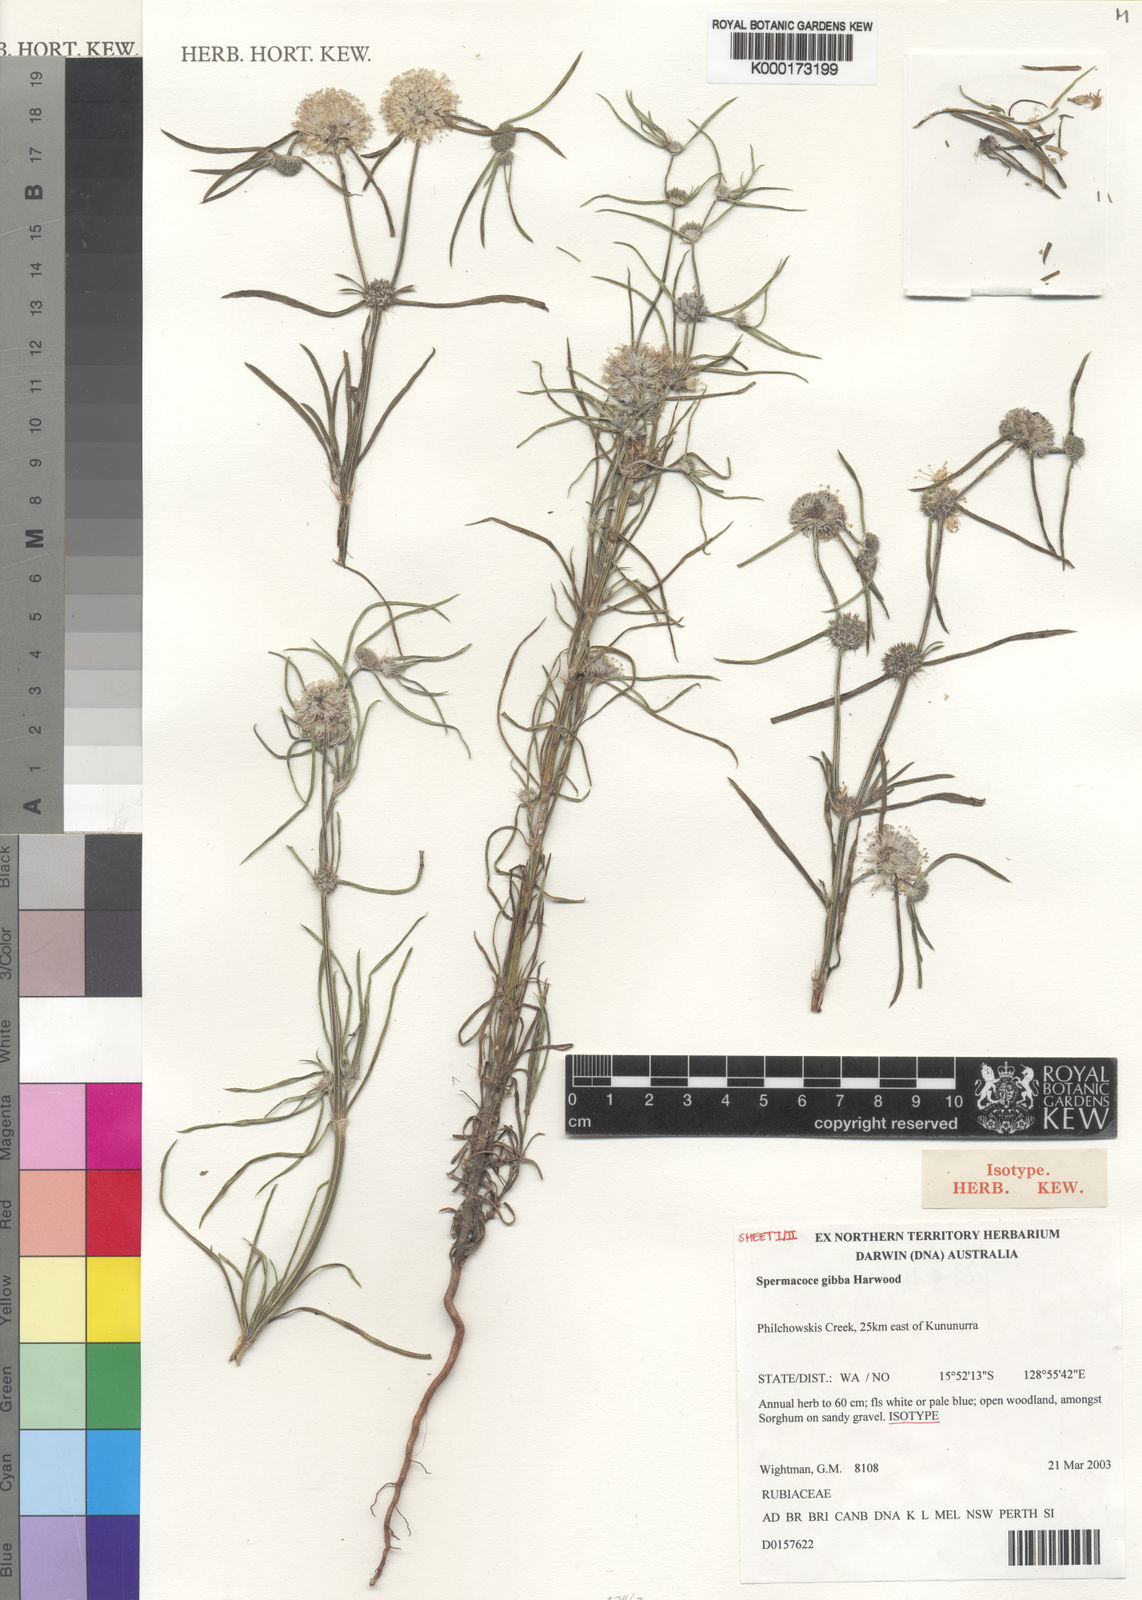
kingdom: Plantae
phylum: Tracheophyta
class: Magnoliopsida
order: Gentianales
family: Rubiaceae
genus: Spermacoce
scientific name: Spermacoce gibba
